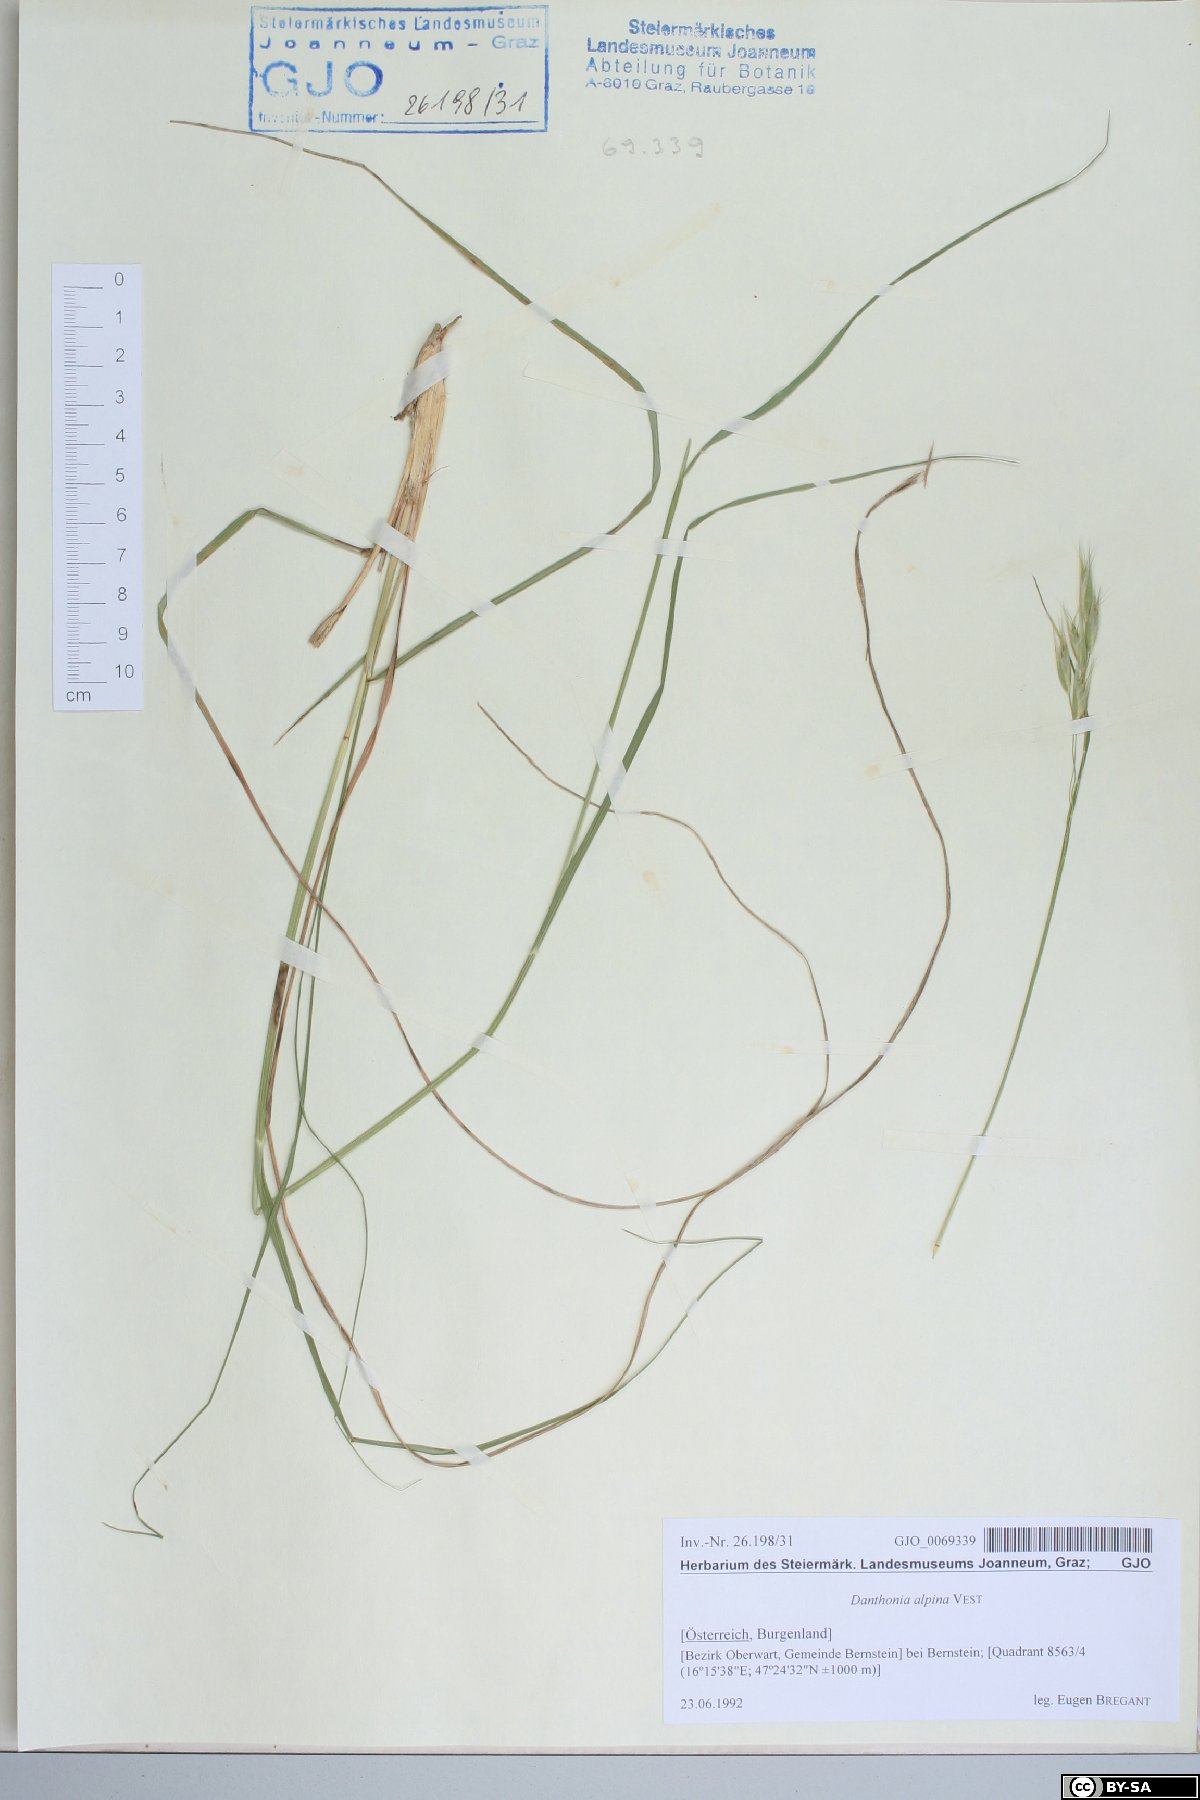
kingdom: Plantae
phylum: Tracheophyta
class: Liliopsida
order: Poales
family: Poaceae
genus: Danthonia
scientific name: Danthonia alpina
